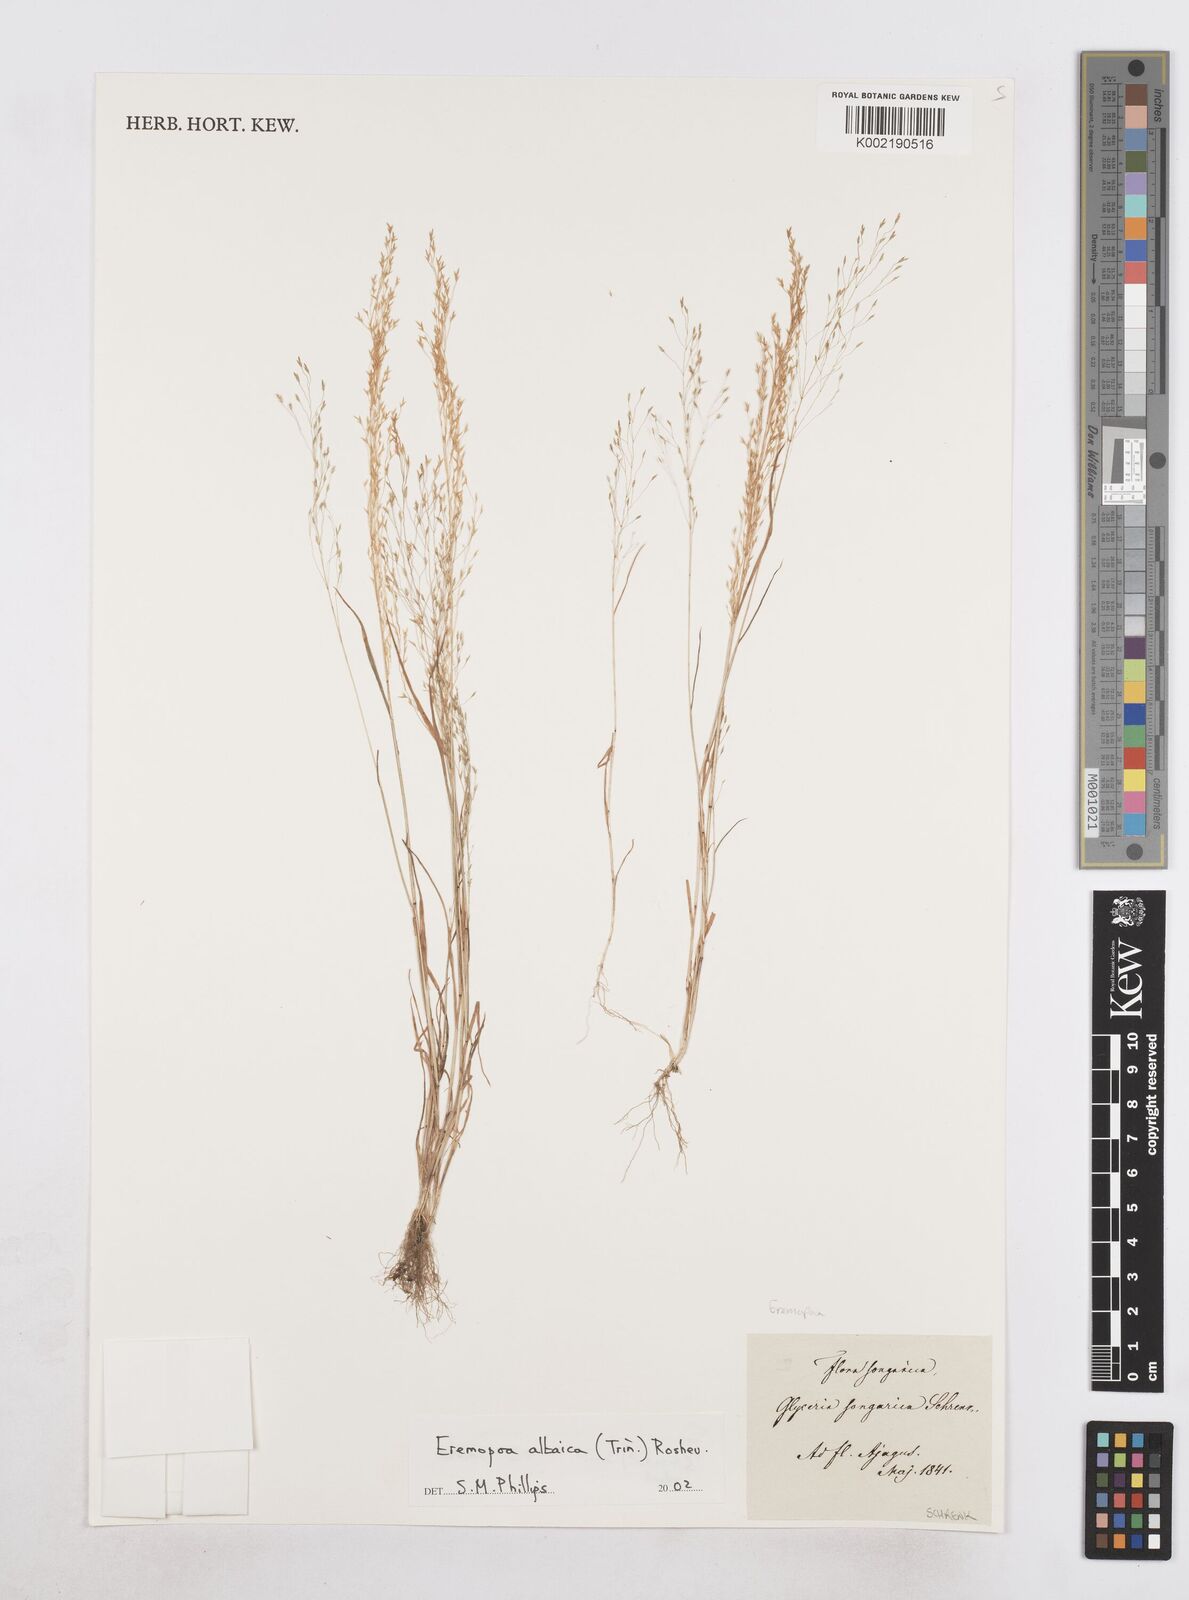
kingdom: Plantae
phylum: Tracheophyta
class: Liliopsida
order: Poales
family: Poaceae
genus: Poa
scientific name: Poa diaphora
